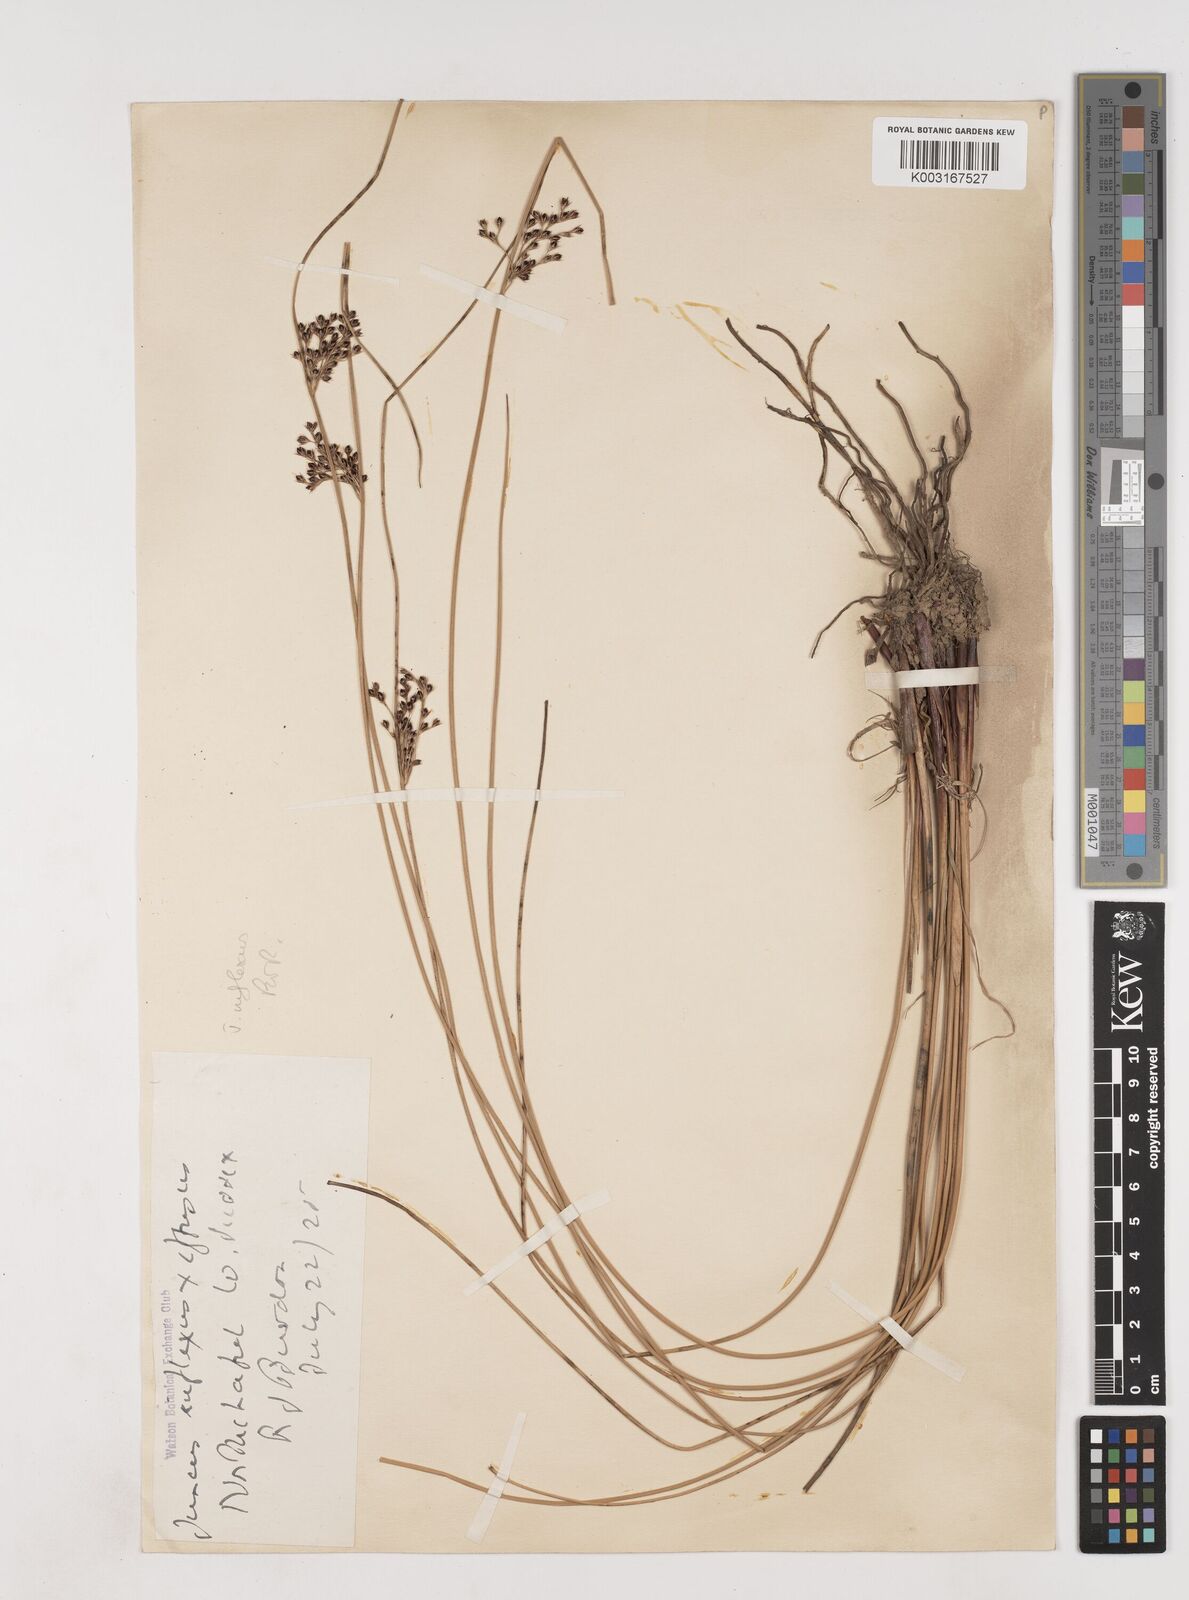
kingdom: Plantae
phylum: Tracheophyta
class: Liliopsida
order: Poales
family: Juncaceae
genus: Juncus
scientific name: Juncus inflexus
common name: Hard rush
